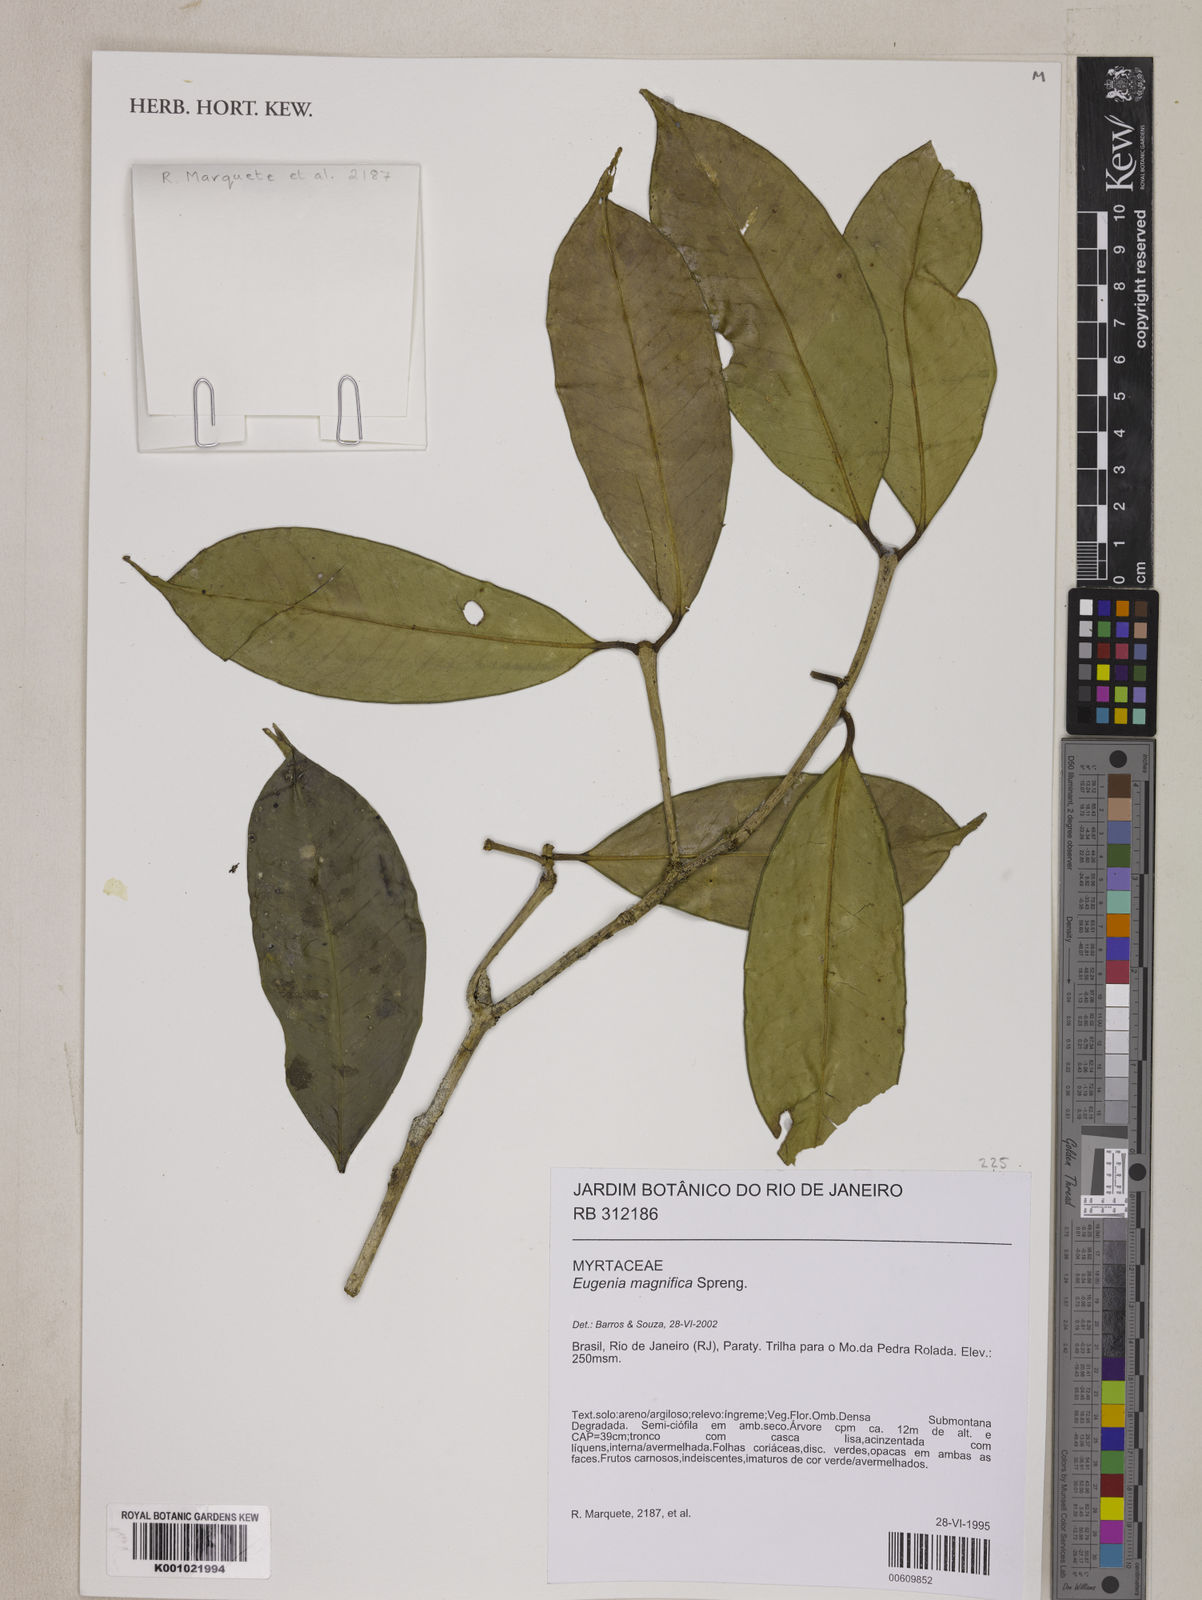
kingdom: Plantae
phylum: Tracheophyta
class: Magnoliopsida
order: Myrtales
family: Myrtaceae
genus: Eugenia
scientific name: Eugenia
